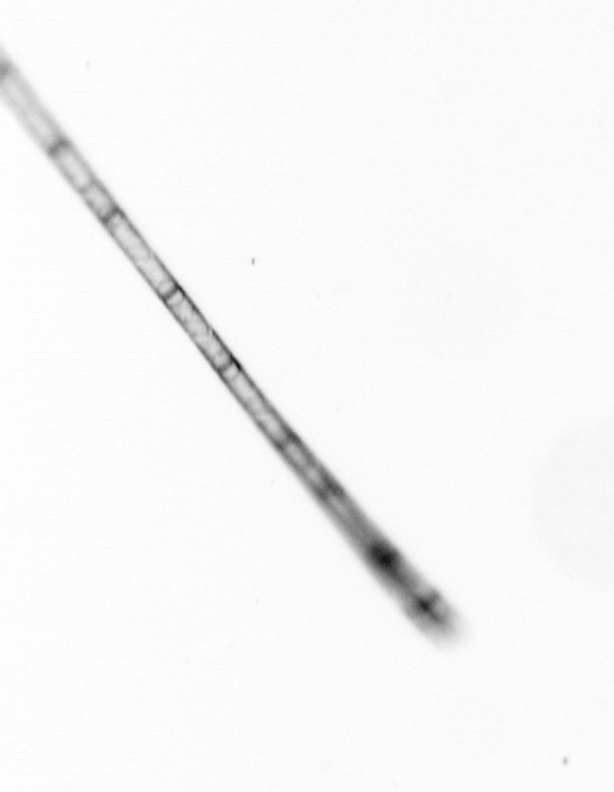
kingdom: Chromista
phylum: Ochrophyta
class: Bacillariophyceae
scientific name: Bacillariophyceae
